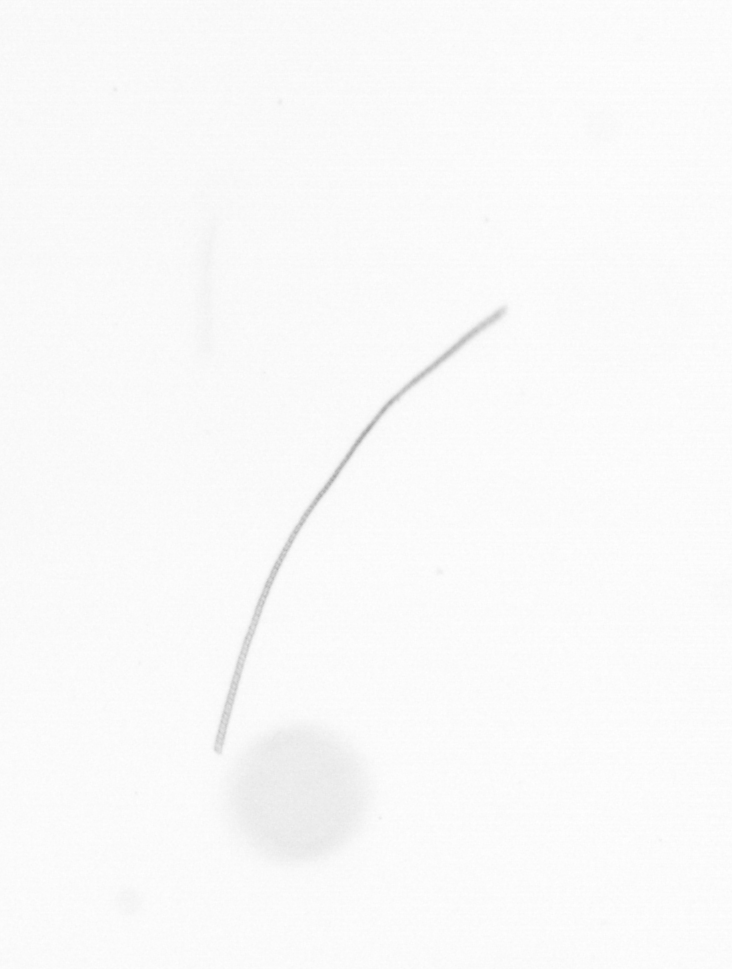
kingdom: Chromista
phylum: Ochrophyta
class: Bacillariophyceae
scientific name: Bacillariophyceae
